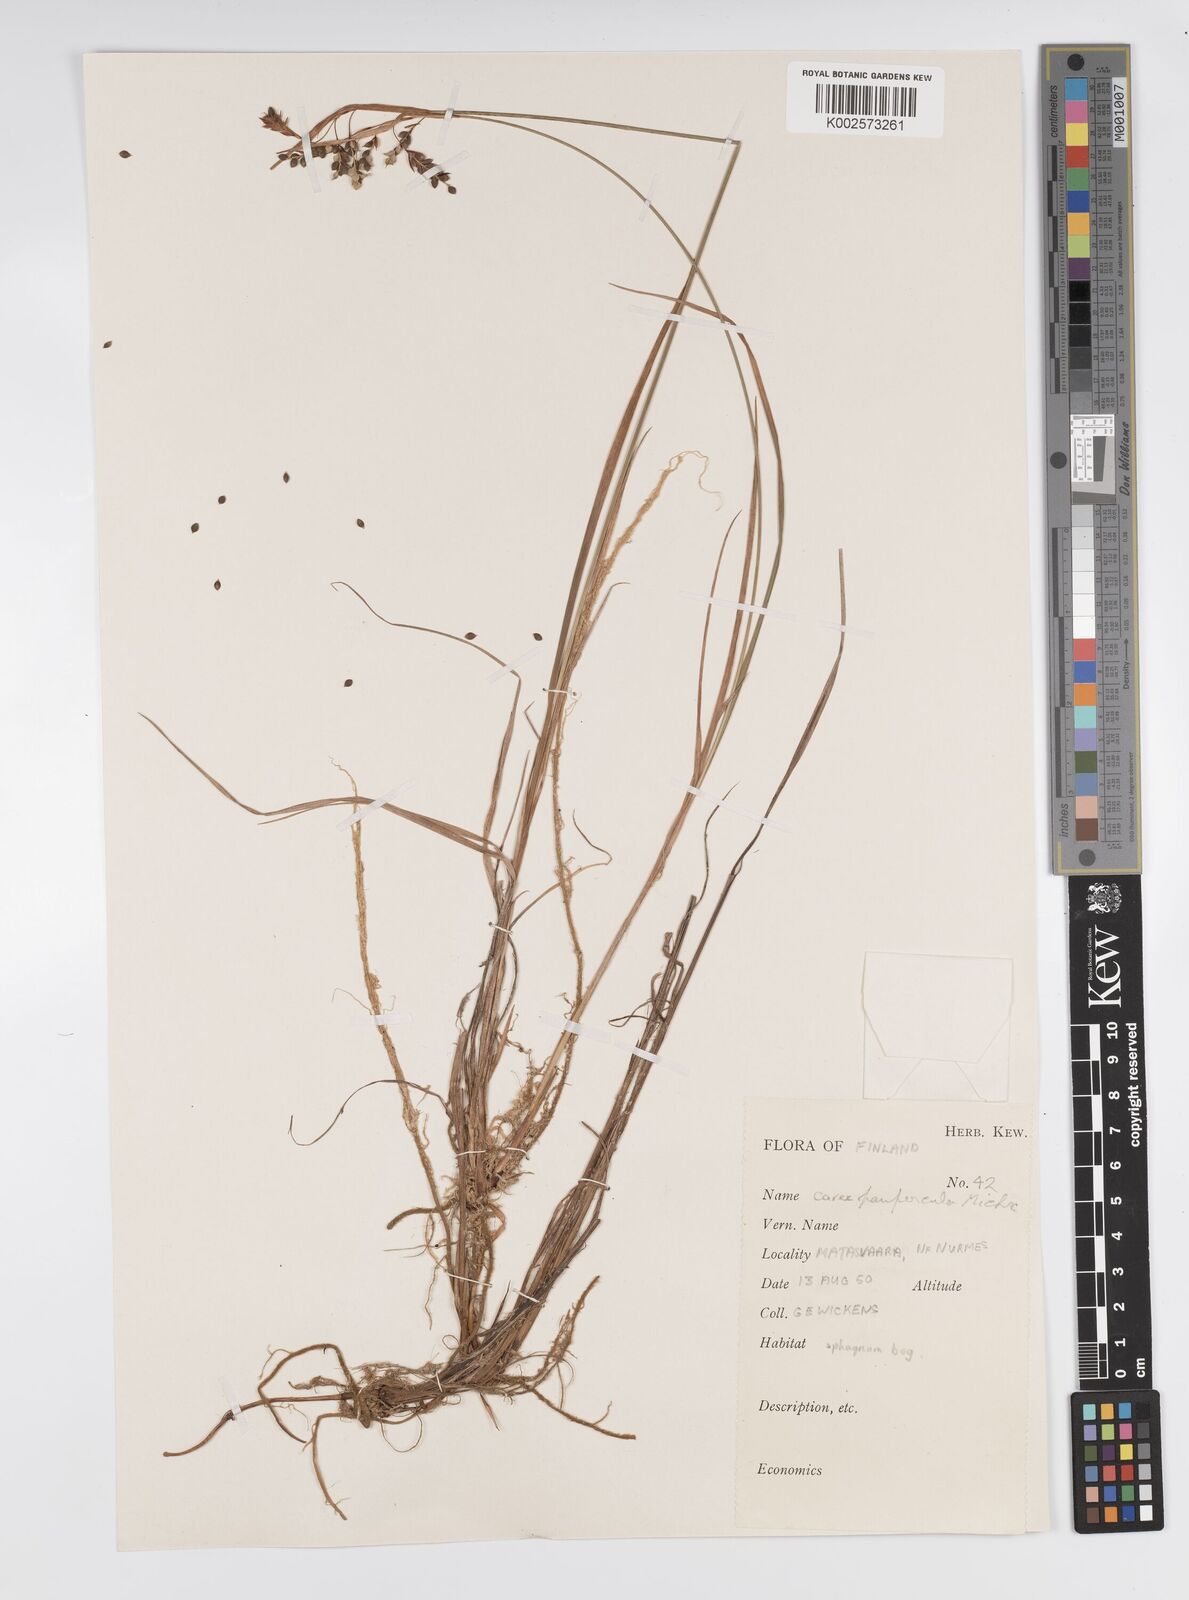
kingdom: Plantae
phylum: Tracheophyta
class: Liliopsida
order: Poales
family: Cyperaceae
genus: Carex
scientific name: Carex magellanica
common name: Bog sedge
